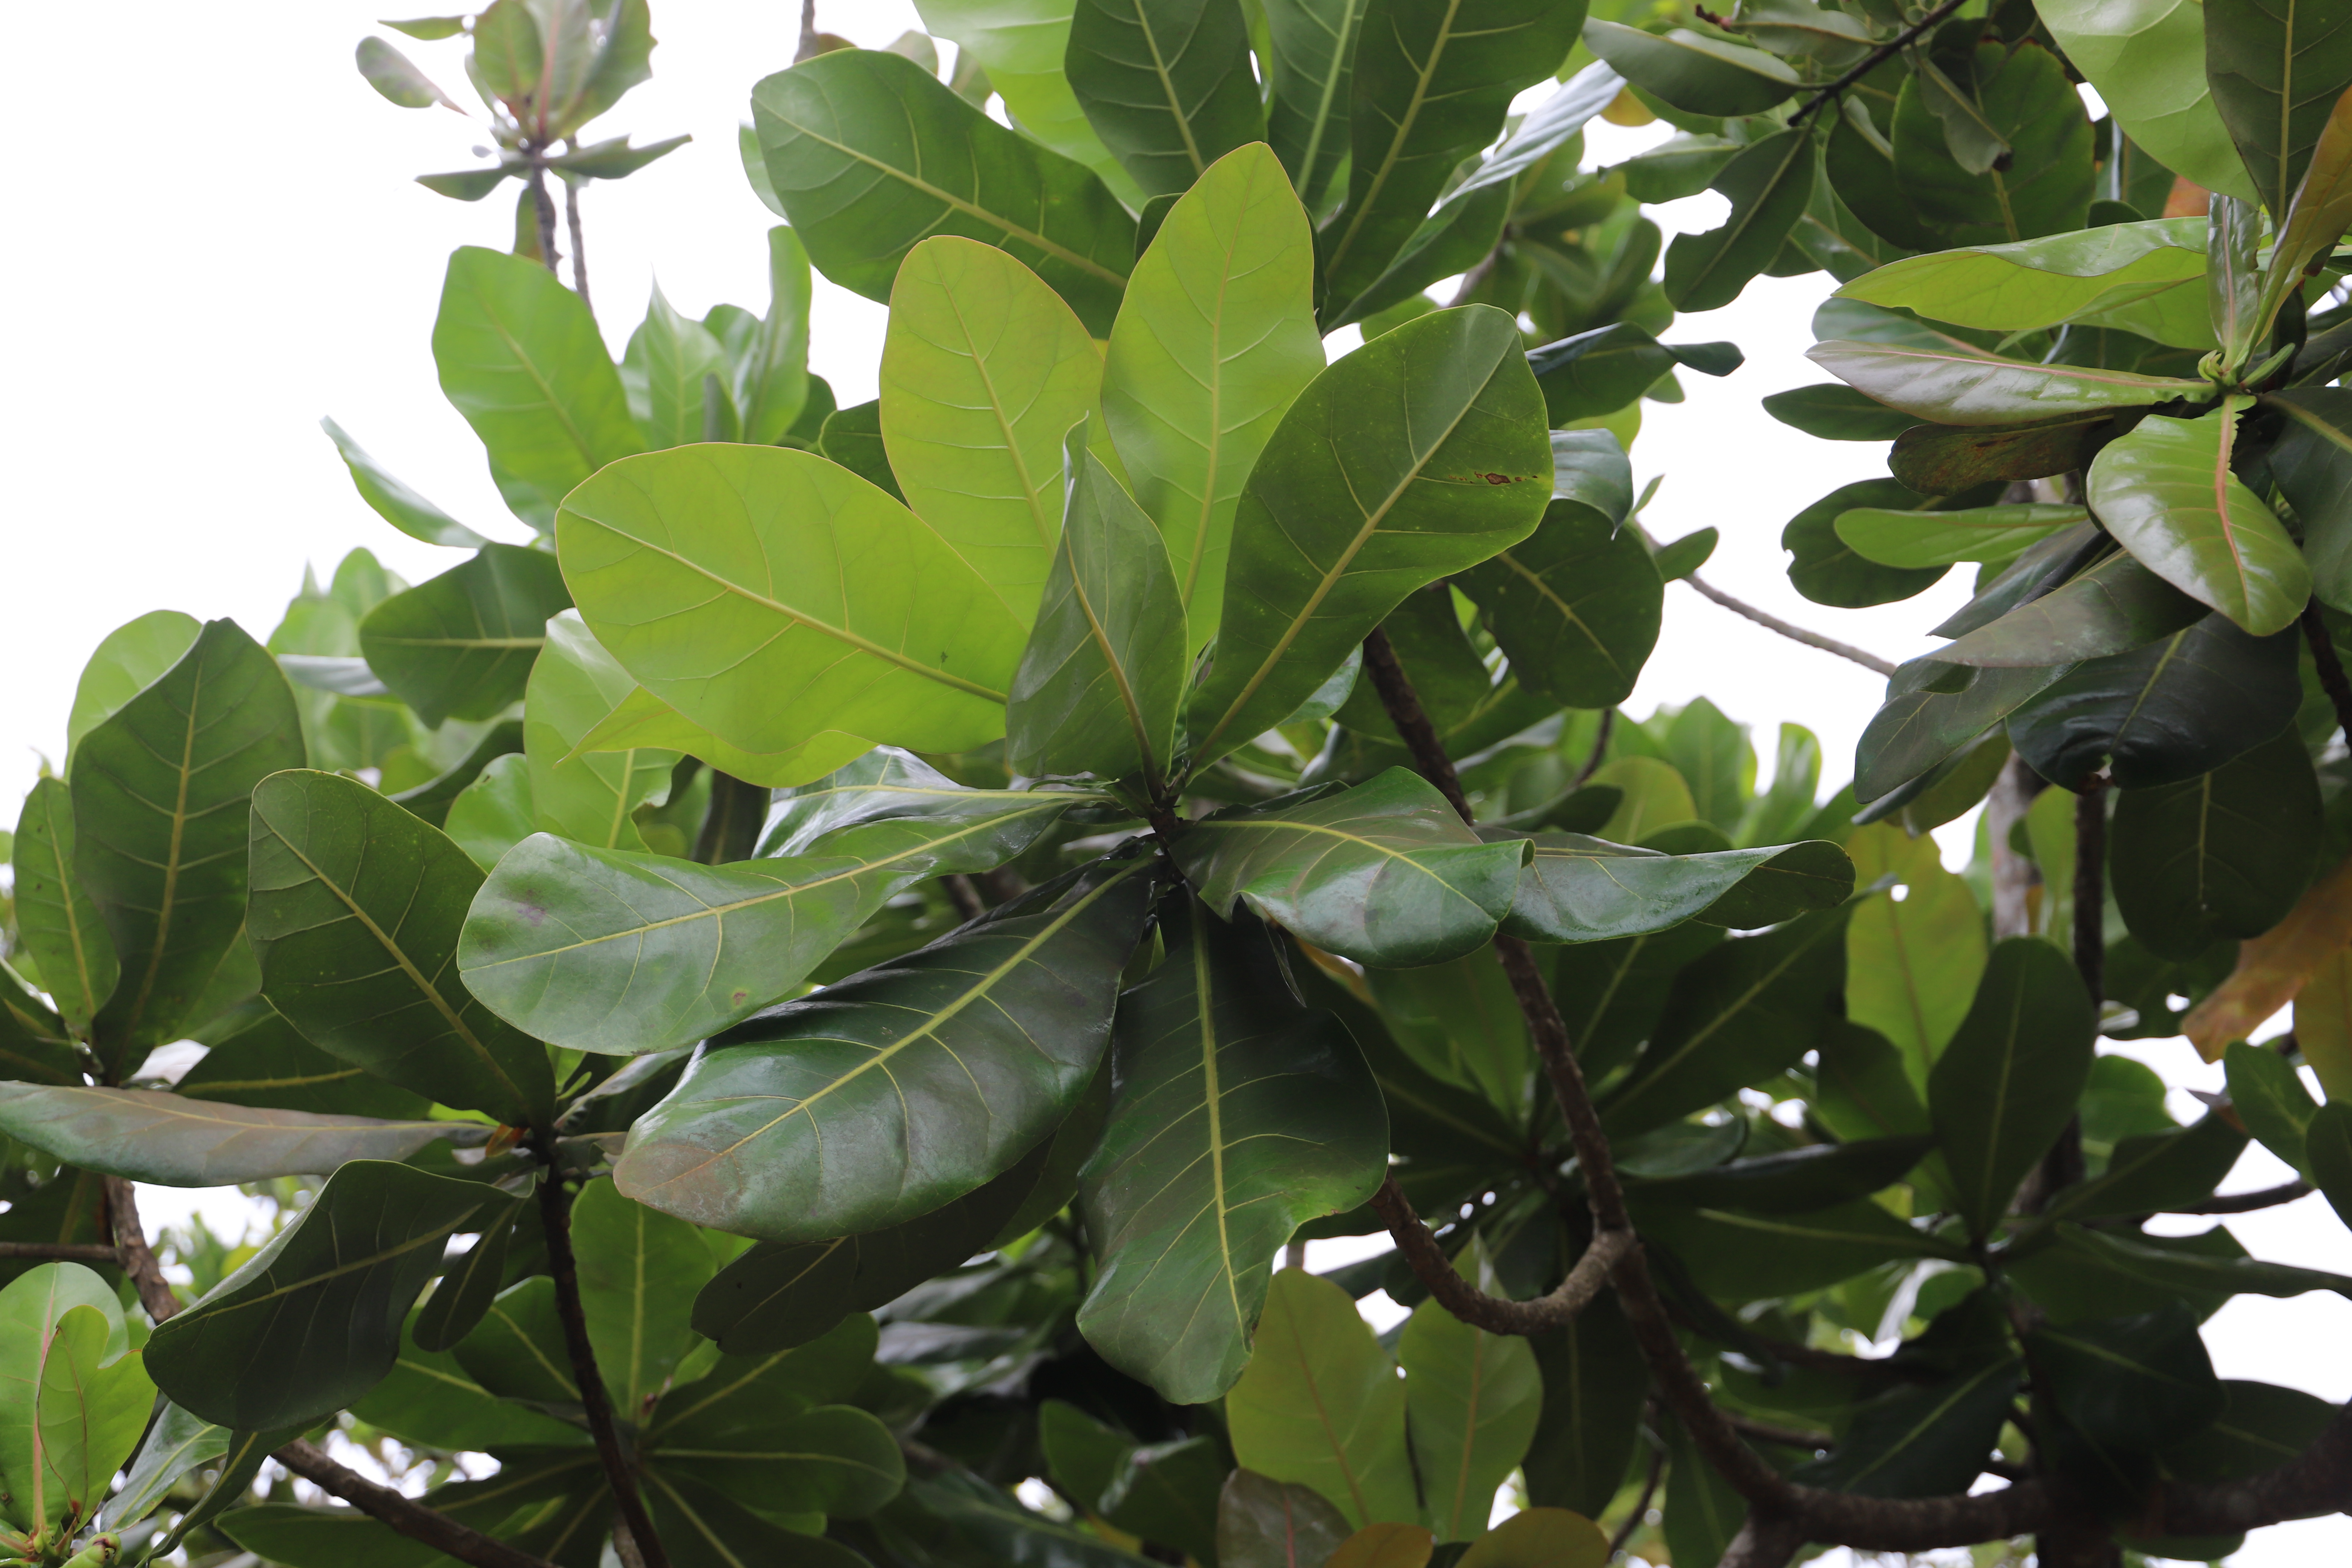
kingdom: Plantae
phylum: Tracheophyta
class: Magnoliopsida
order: Ericales
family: Lecythidaceae
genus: Barringtonia
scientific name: Barringtonia asiatica
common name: Mango-pine
